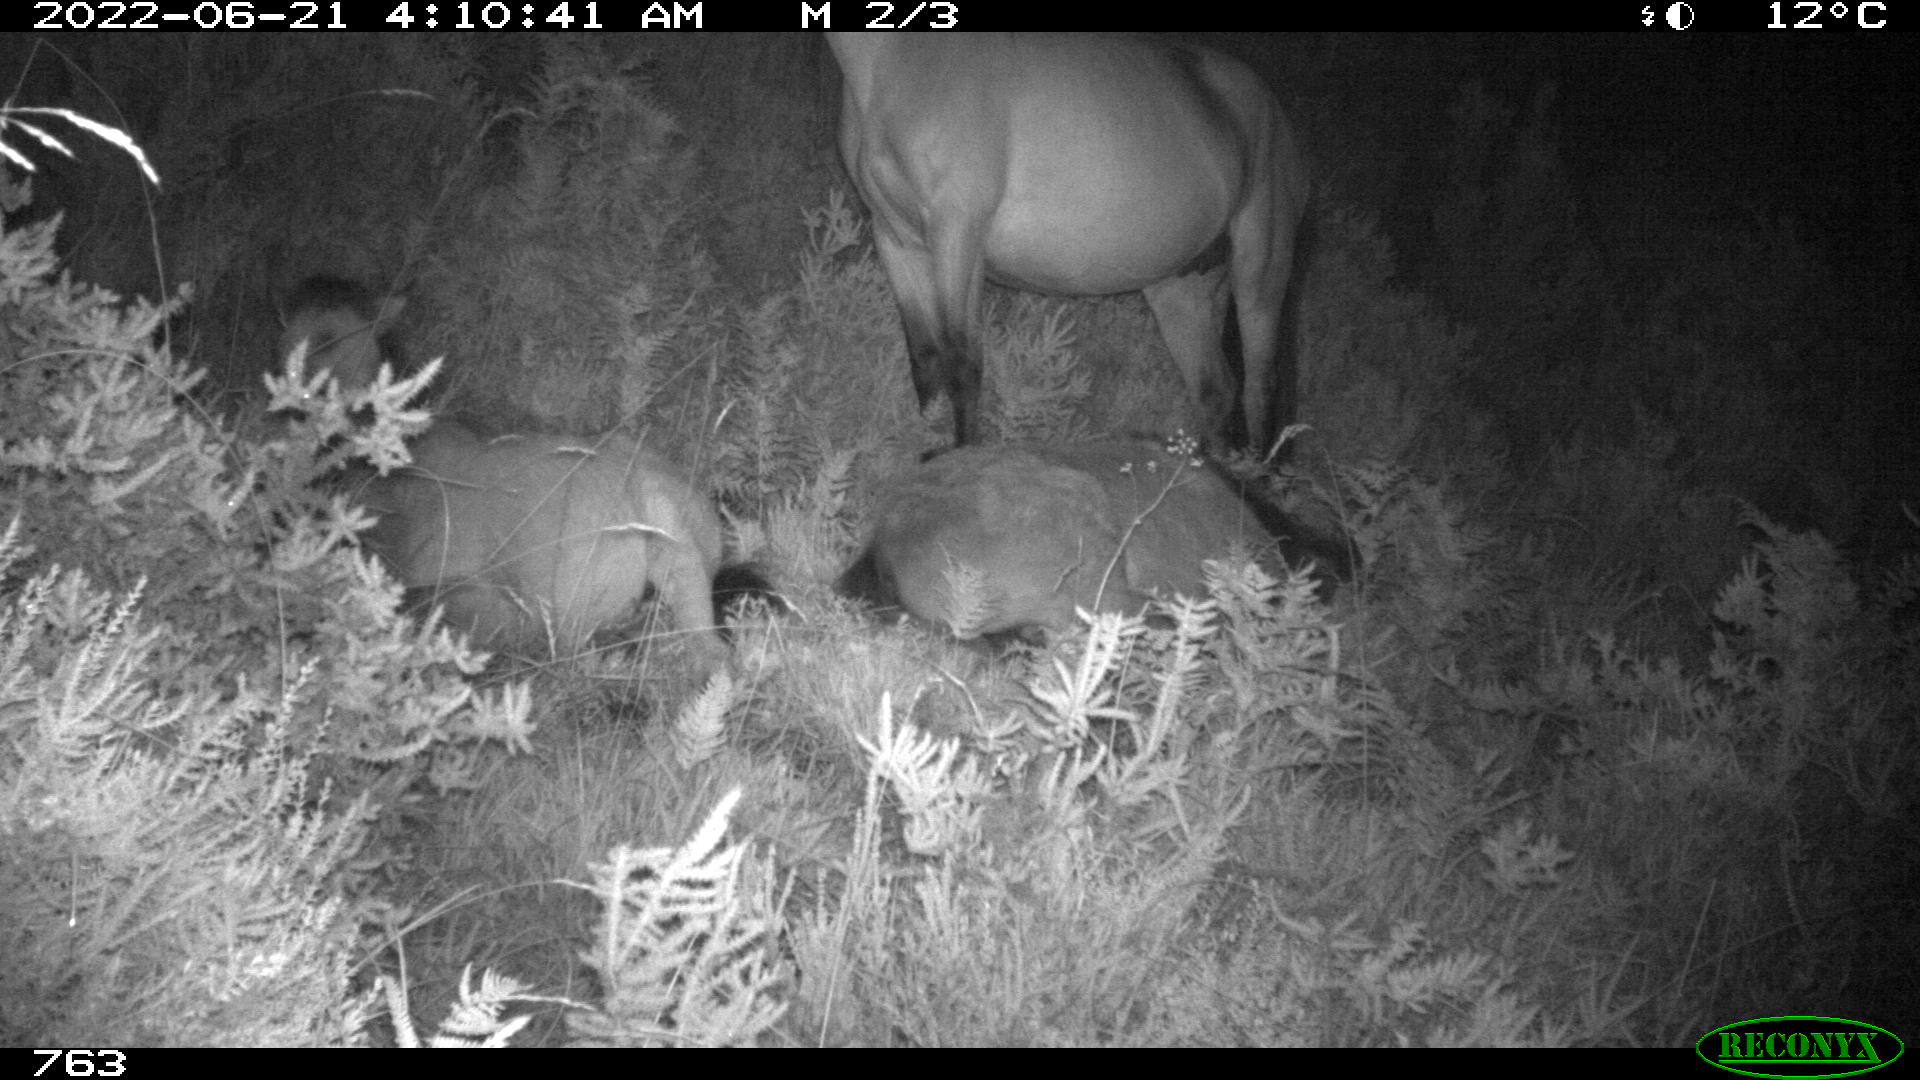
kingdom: Animalia
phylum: Chordata
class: Mammalia
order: Perissodactyla
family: Equidae
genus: Equus
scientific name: Equus caballus
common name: Horse
